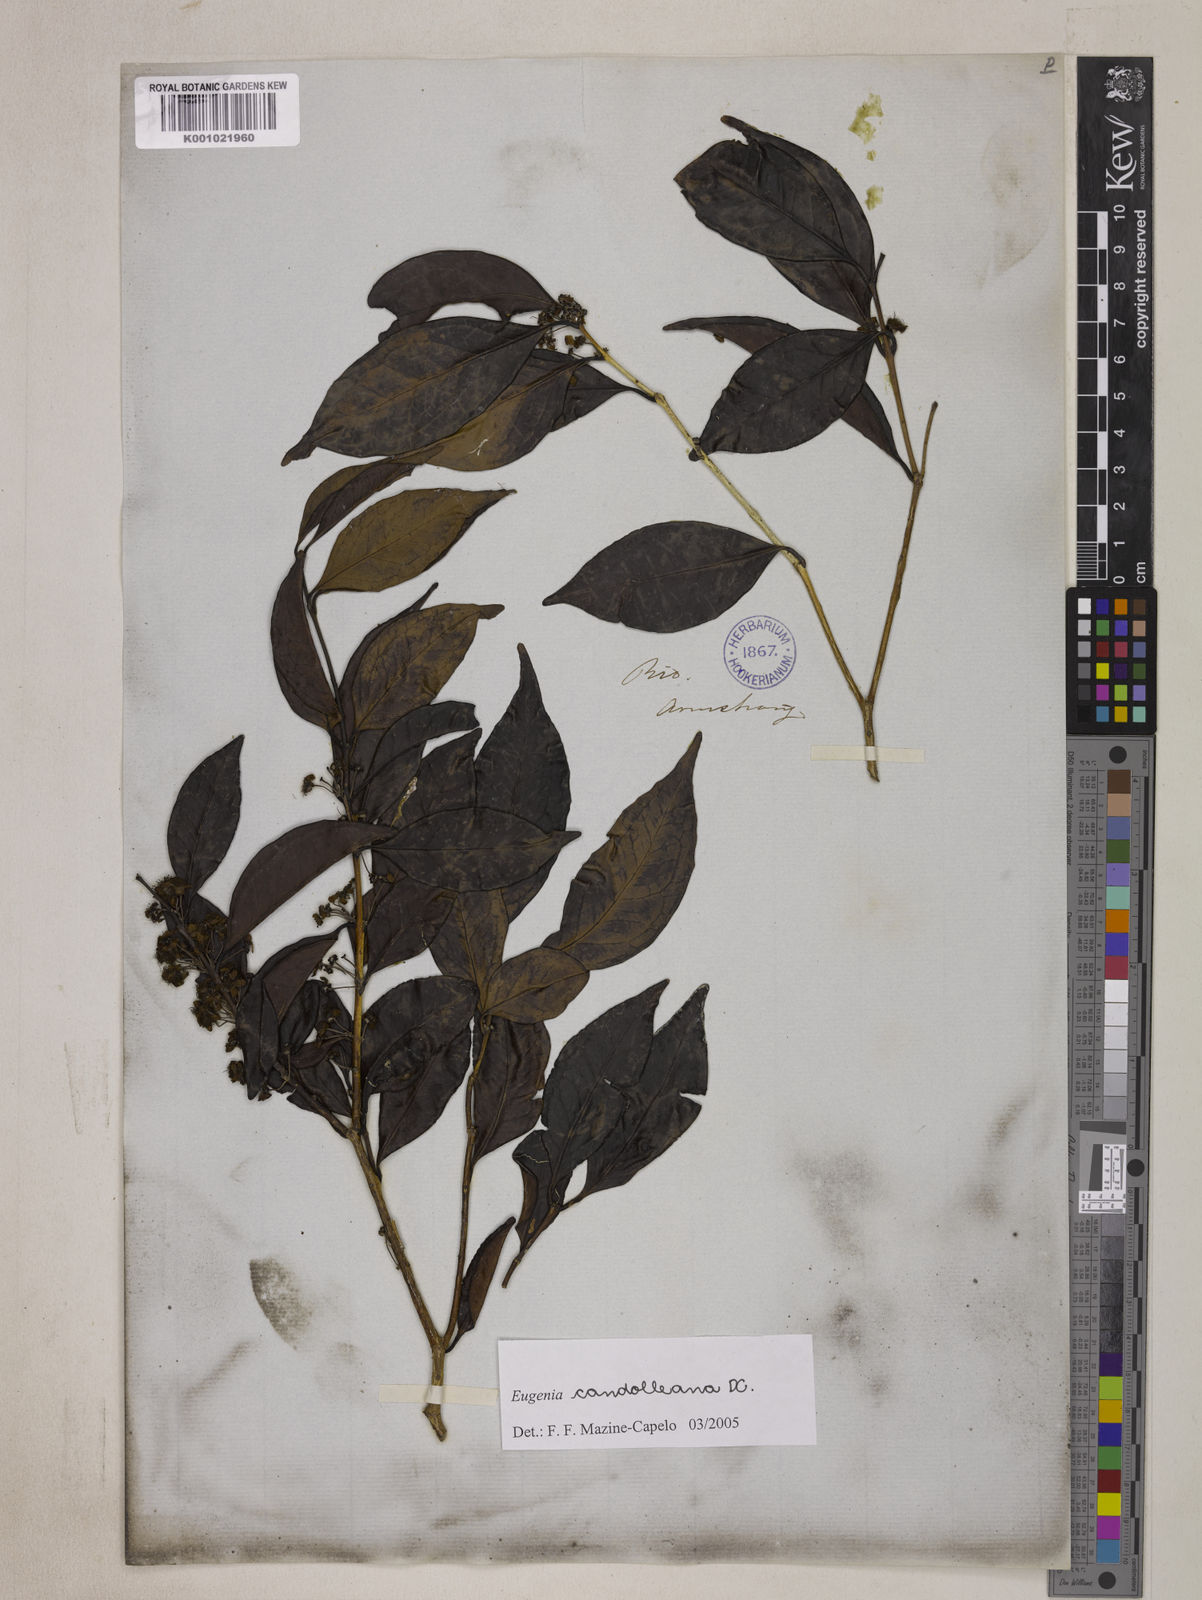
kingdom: Plantae
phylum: Tracheophyta
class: Magnoliopsida
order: Myrtales
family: Myrtaceae
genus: Eugenia
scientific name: Eugenia candolleana
